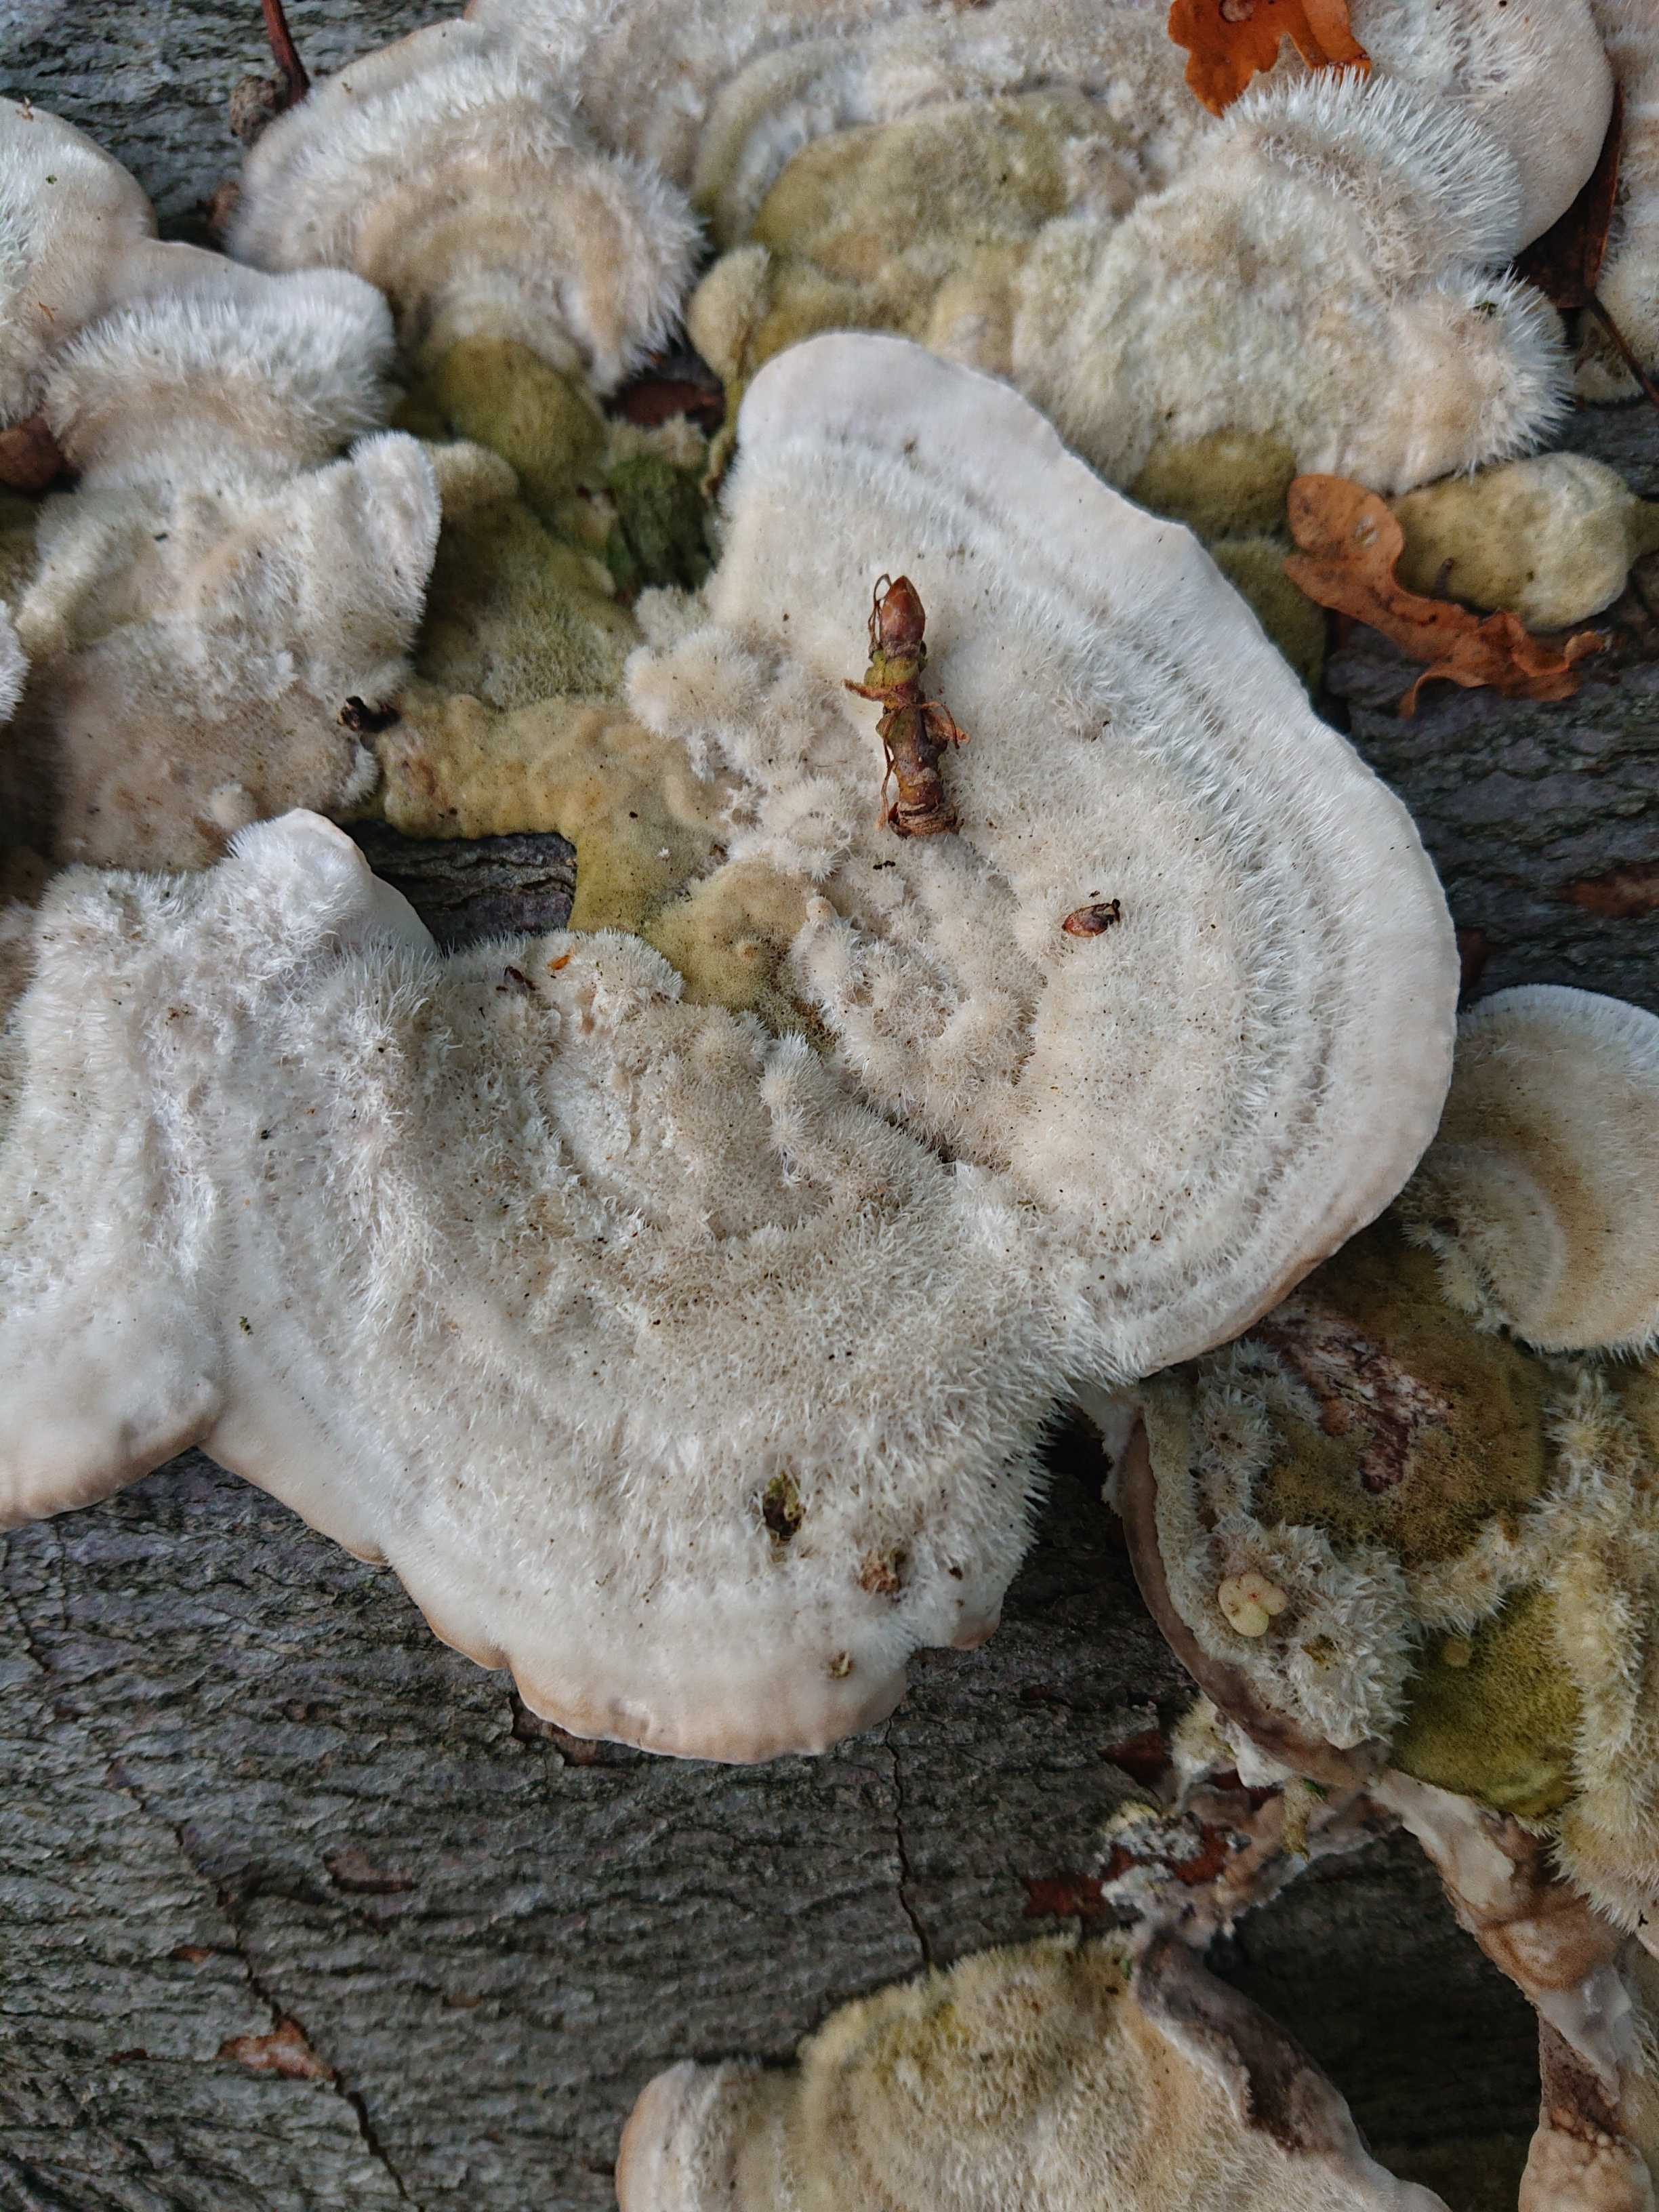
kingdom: Fungi
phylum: Basidiomycota
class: Agaricomycetes
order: Polyporales
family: Polyporaceae
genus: Trametes
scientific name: Trametes hirsuta
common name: håret læderporesvamp
